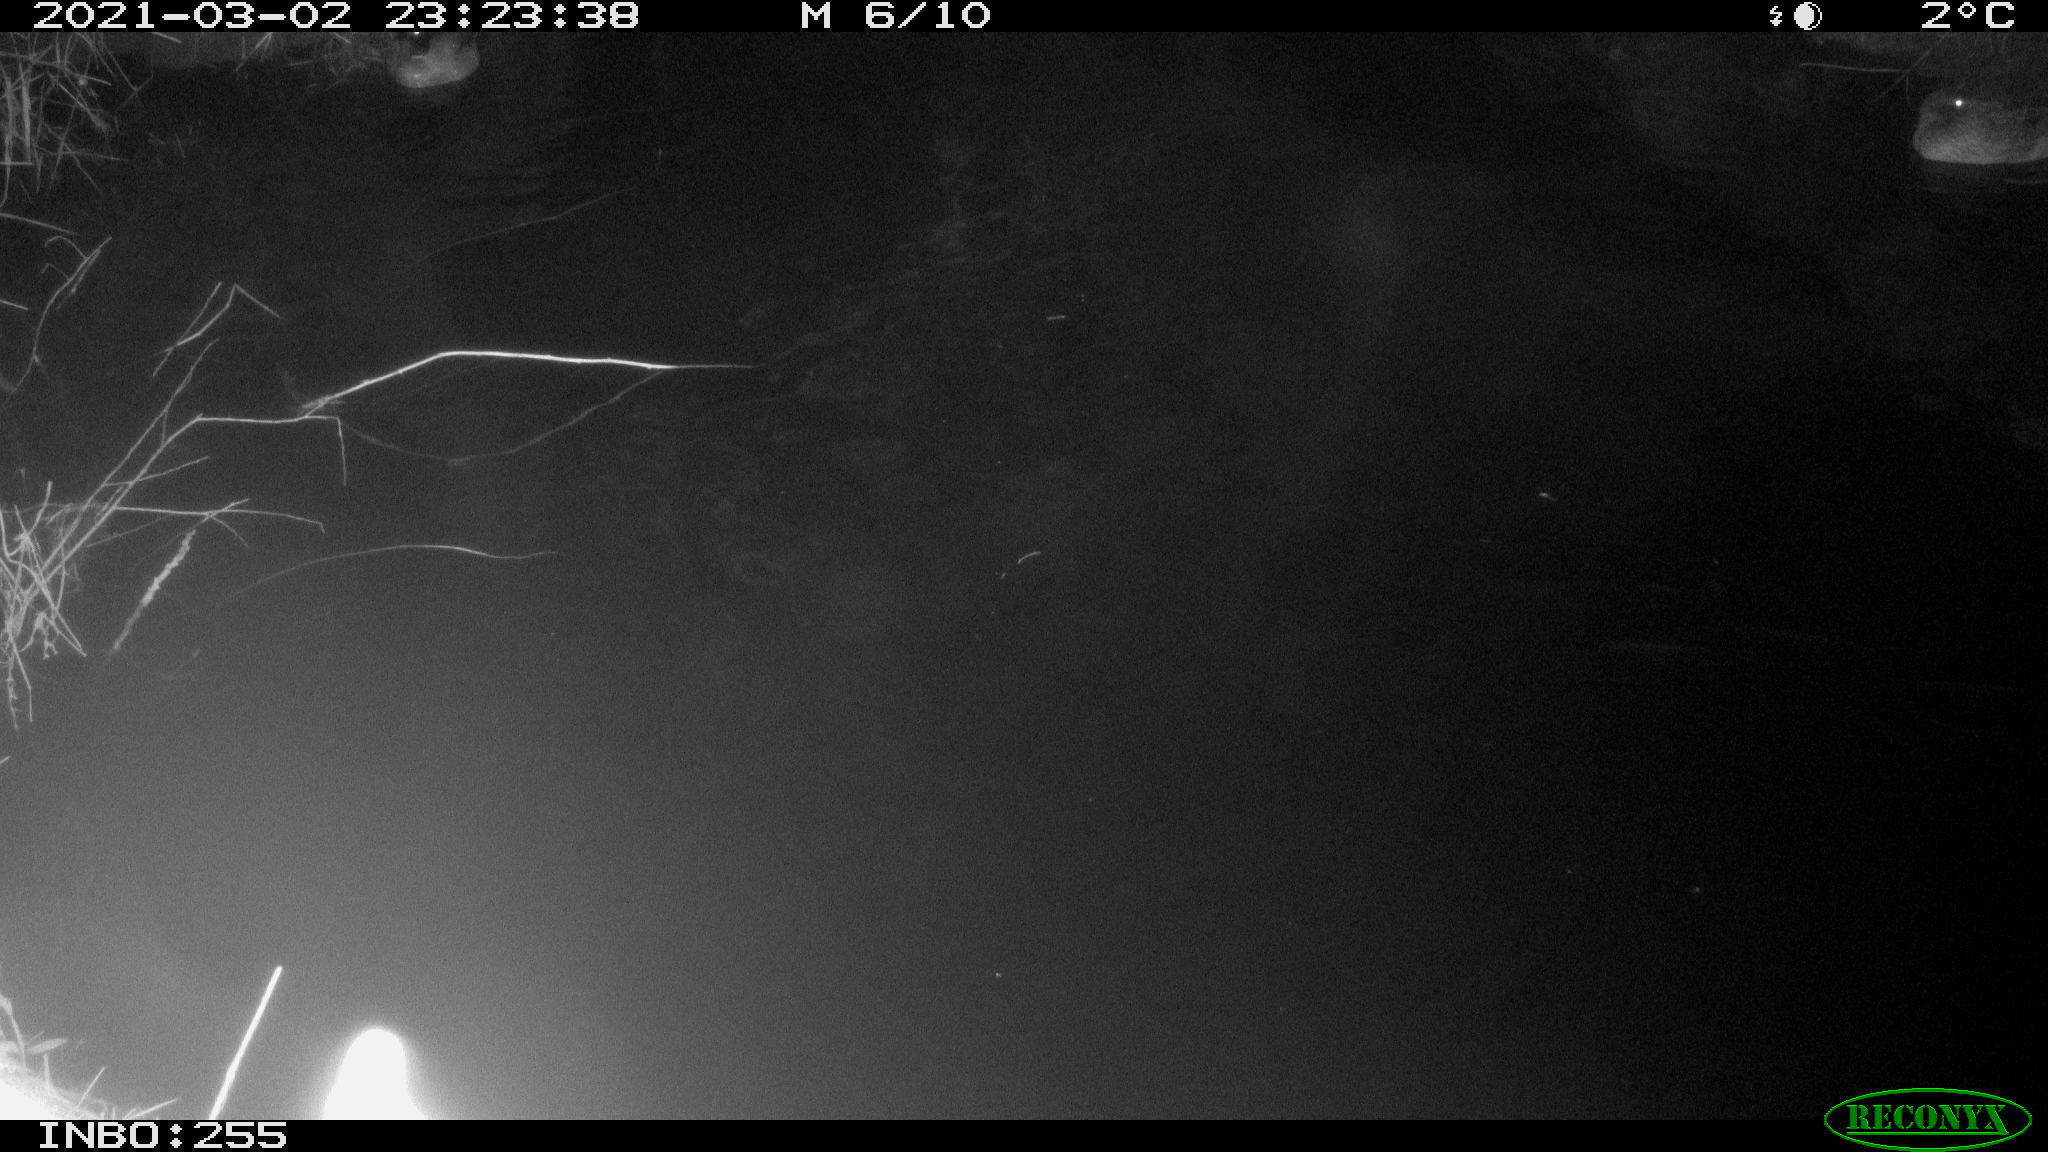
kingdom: Animalia
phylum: Chordata
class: Aves
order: Gruiformes
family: Rallidae
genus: Gallinula
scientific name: Gallinula chloropus
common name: Common moorhen
